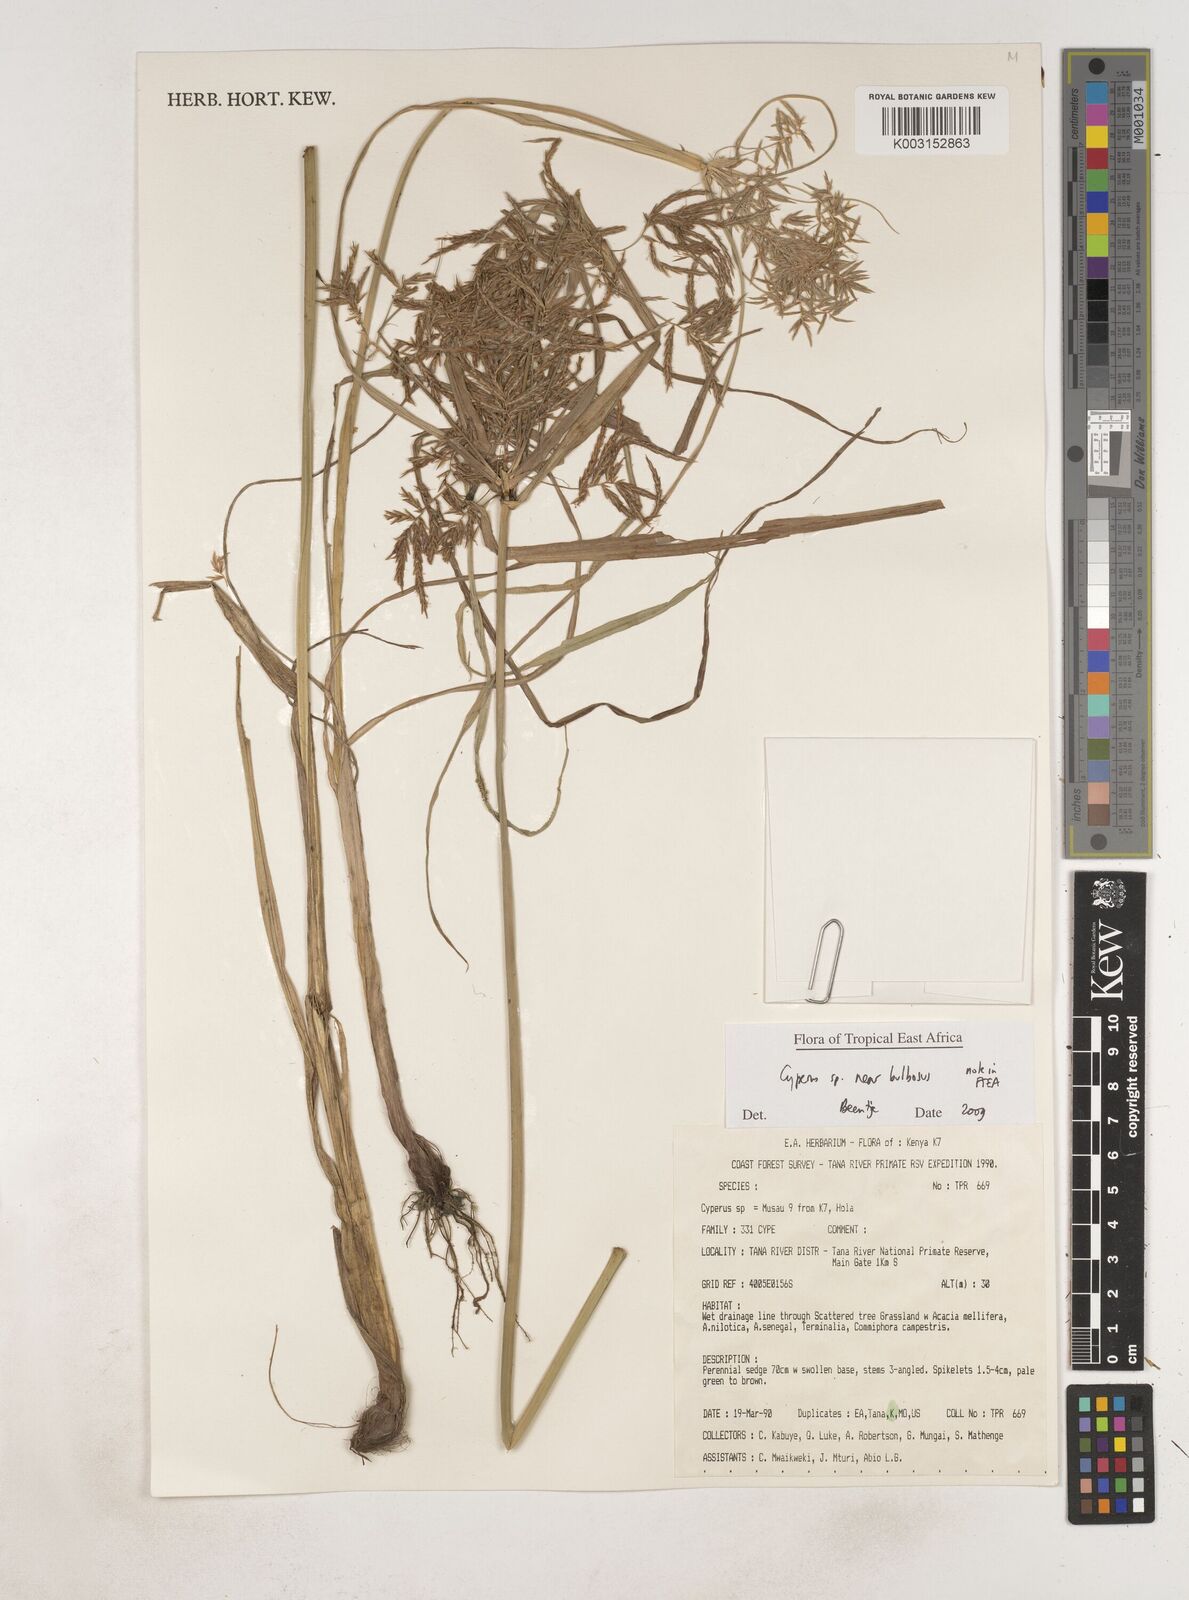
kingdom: Plantae
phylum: Tracheophyta
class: Liliopsida
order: Poales
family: Cyperaceae
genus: Cyperus
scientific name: Cyperus bulbosus
